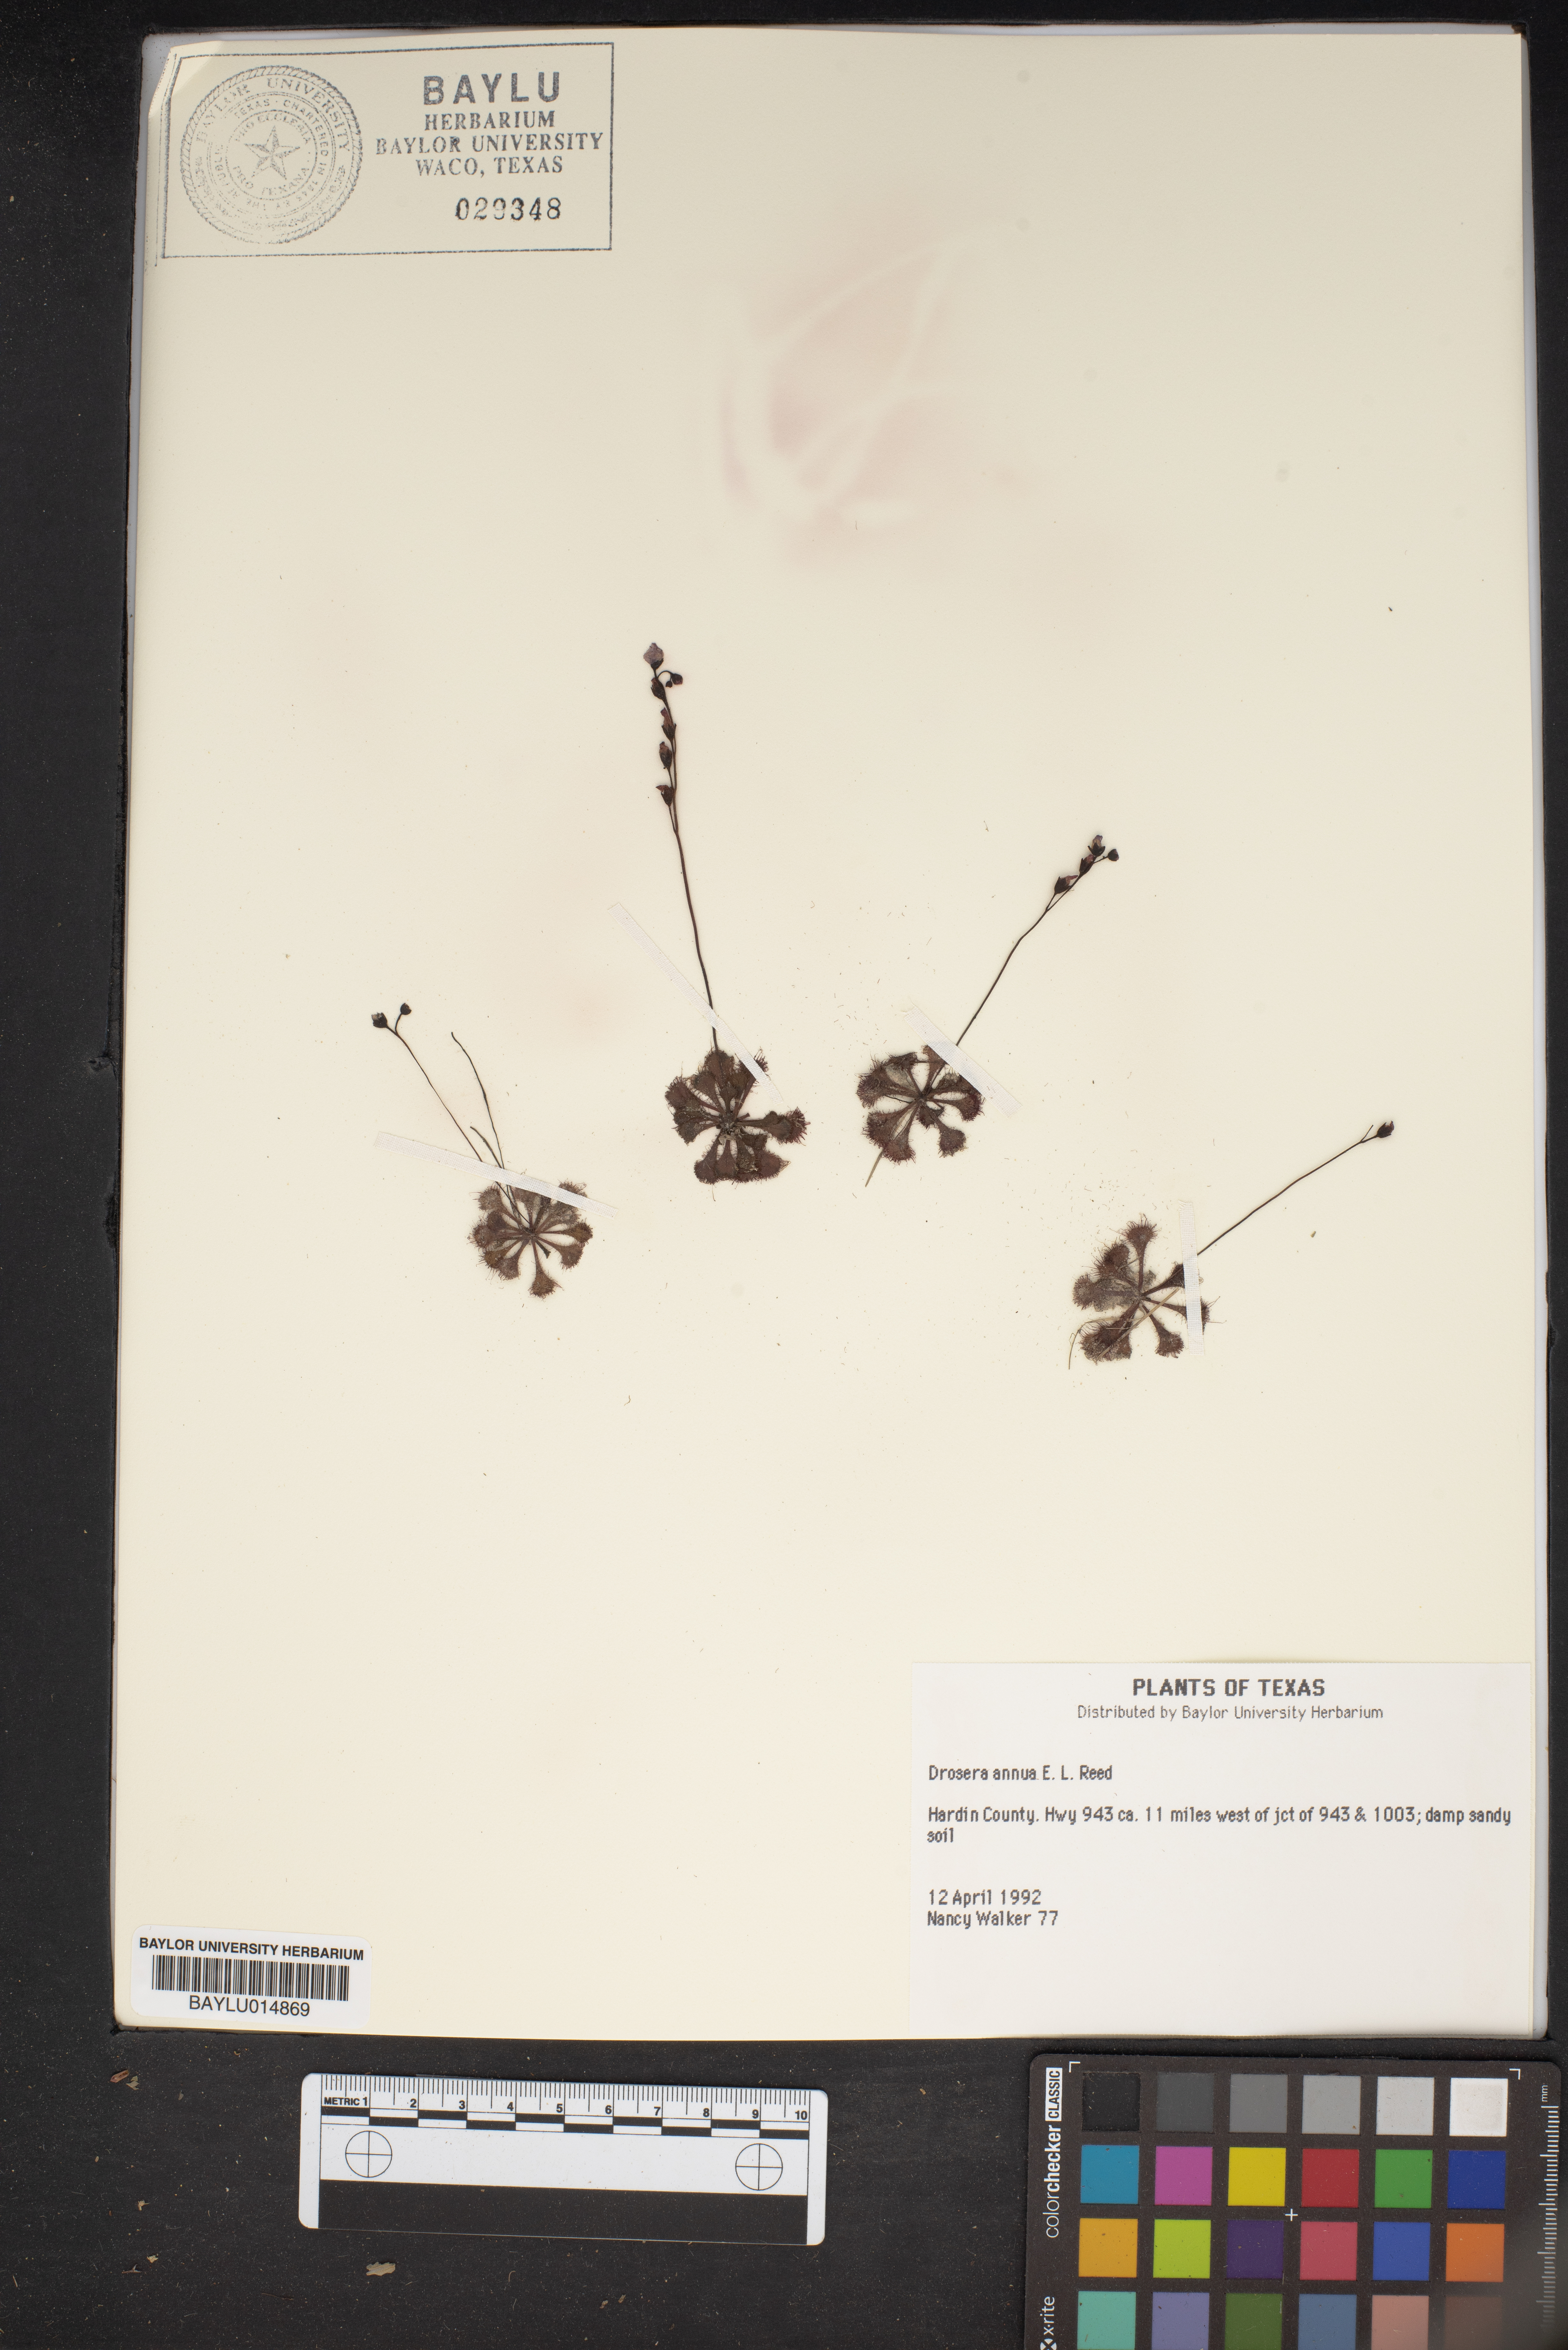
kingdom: Plantae
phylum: Tracheophyta
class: Magnoliopsida
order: Caryophyllales
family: Droseraceae
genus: Drosera
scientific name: Drosera brevifolia
